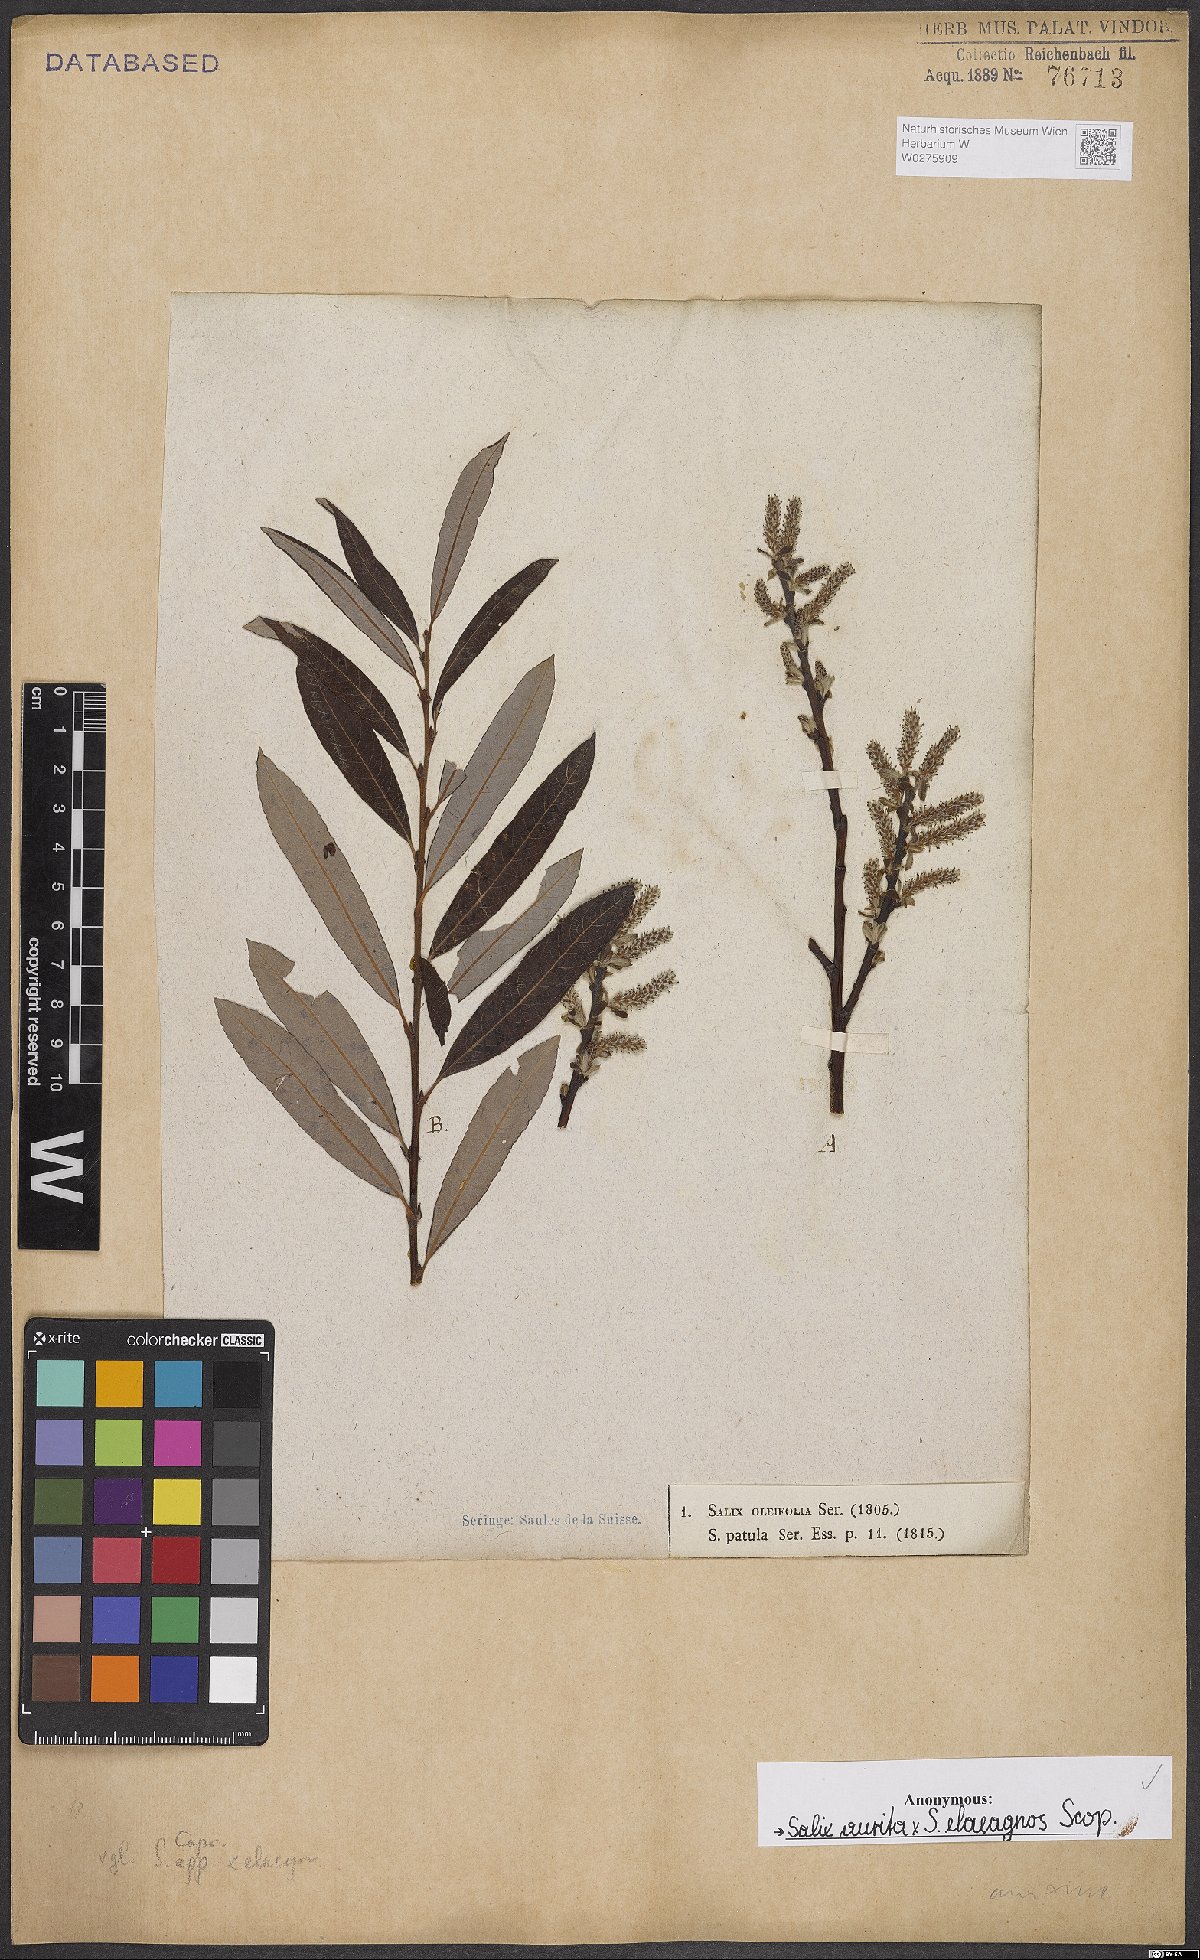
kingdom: Plantae
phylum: Tracheophyta
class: Magnoliopsida
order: Malpighiales
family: Salicaceae
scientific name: Salicaceae
